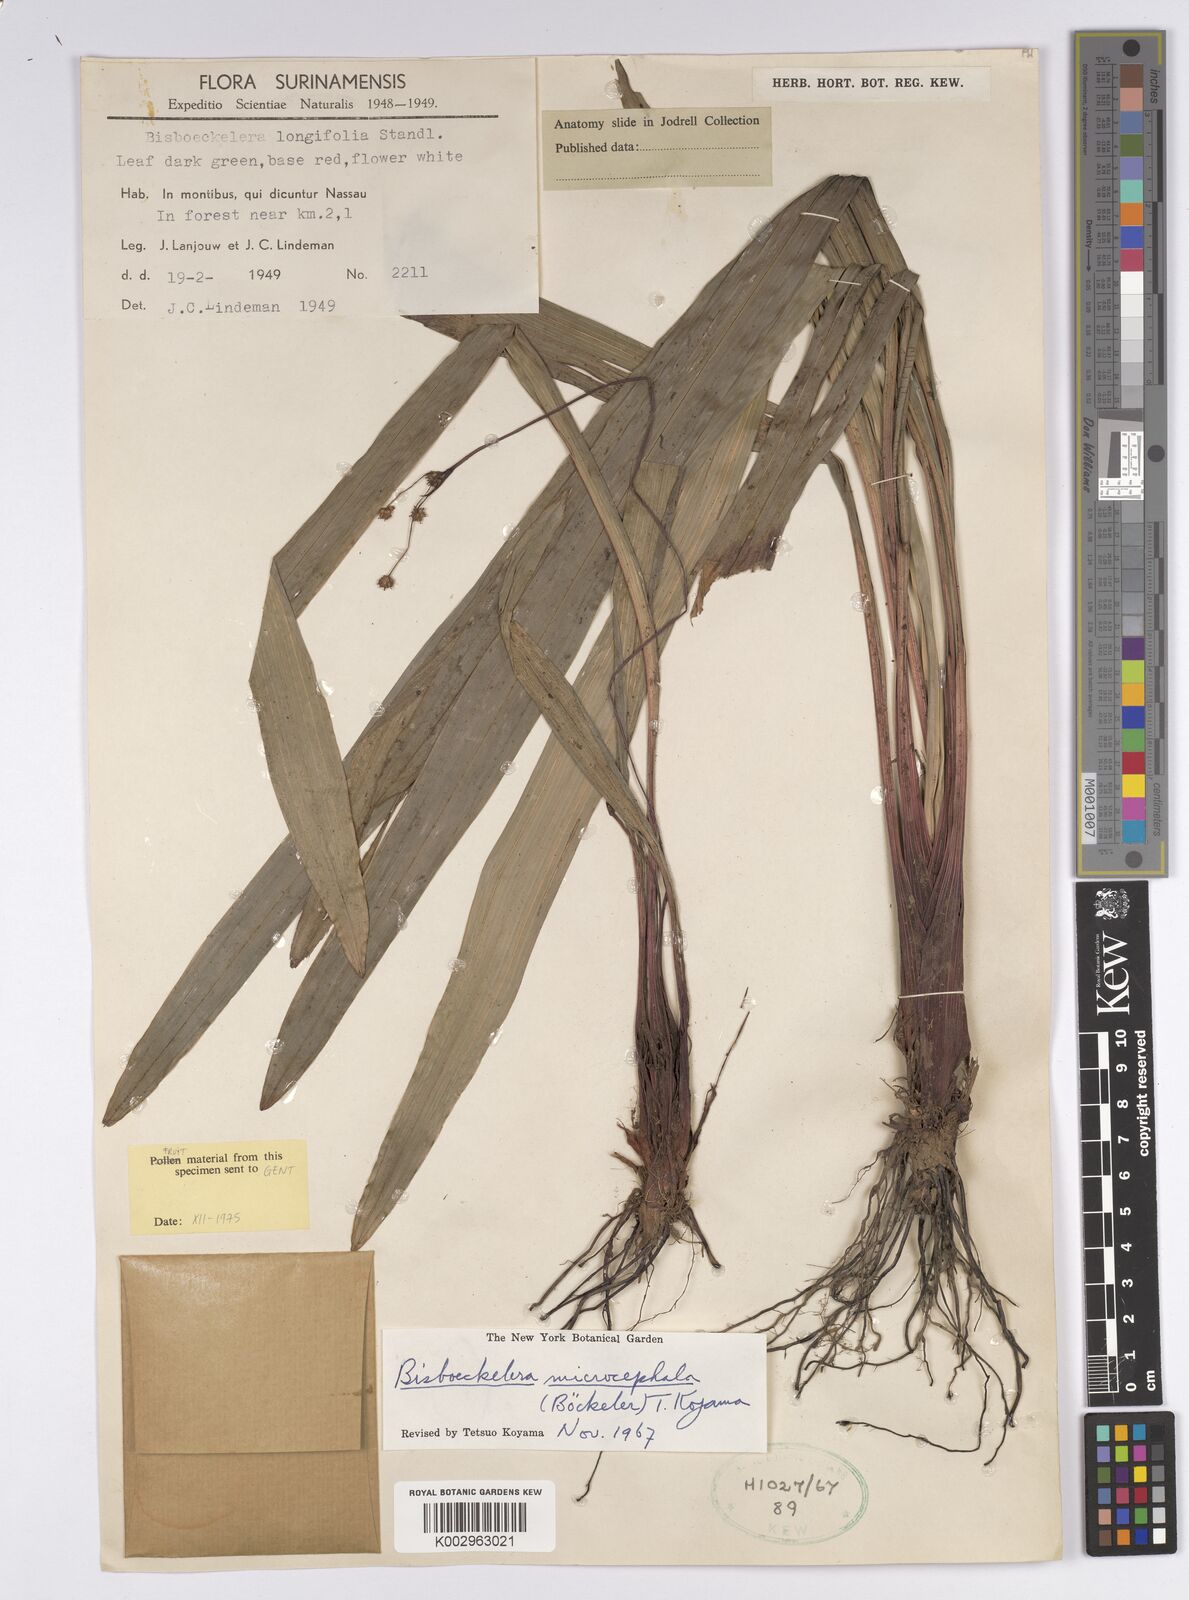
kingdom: Plantae
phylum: Tracheophyta
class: Liliopsida
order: Poales
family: Cyperaceae
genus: Bisboeckelera
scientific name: Bisboeckelera microcephala
